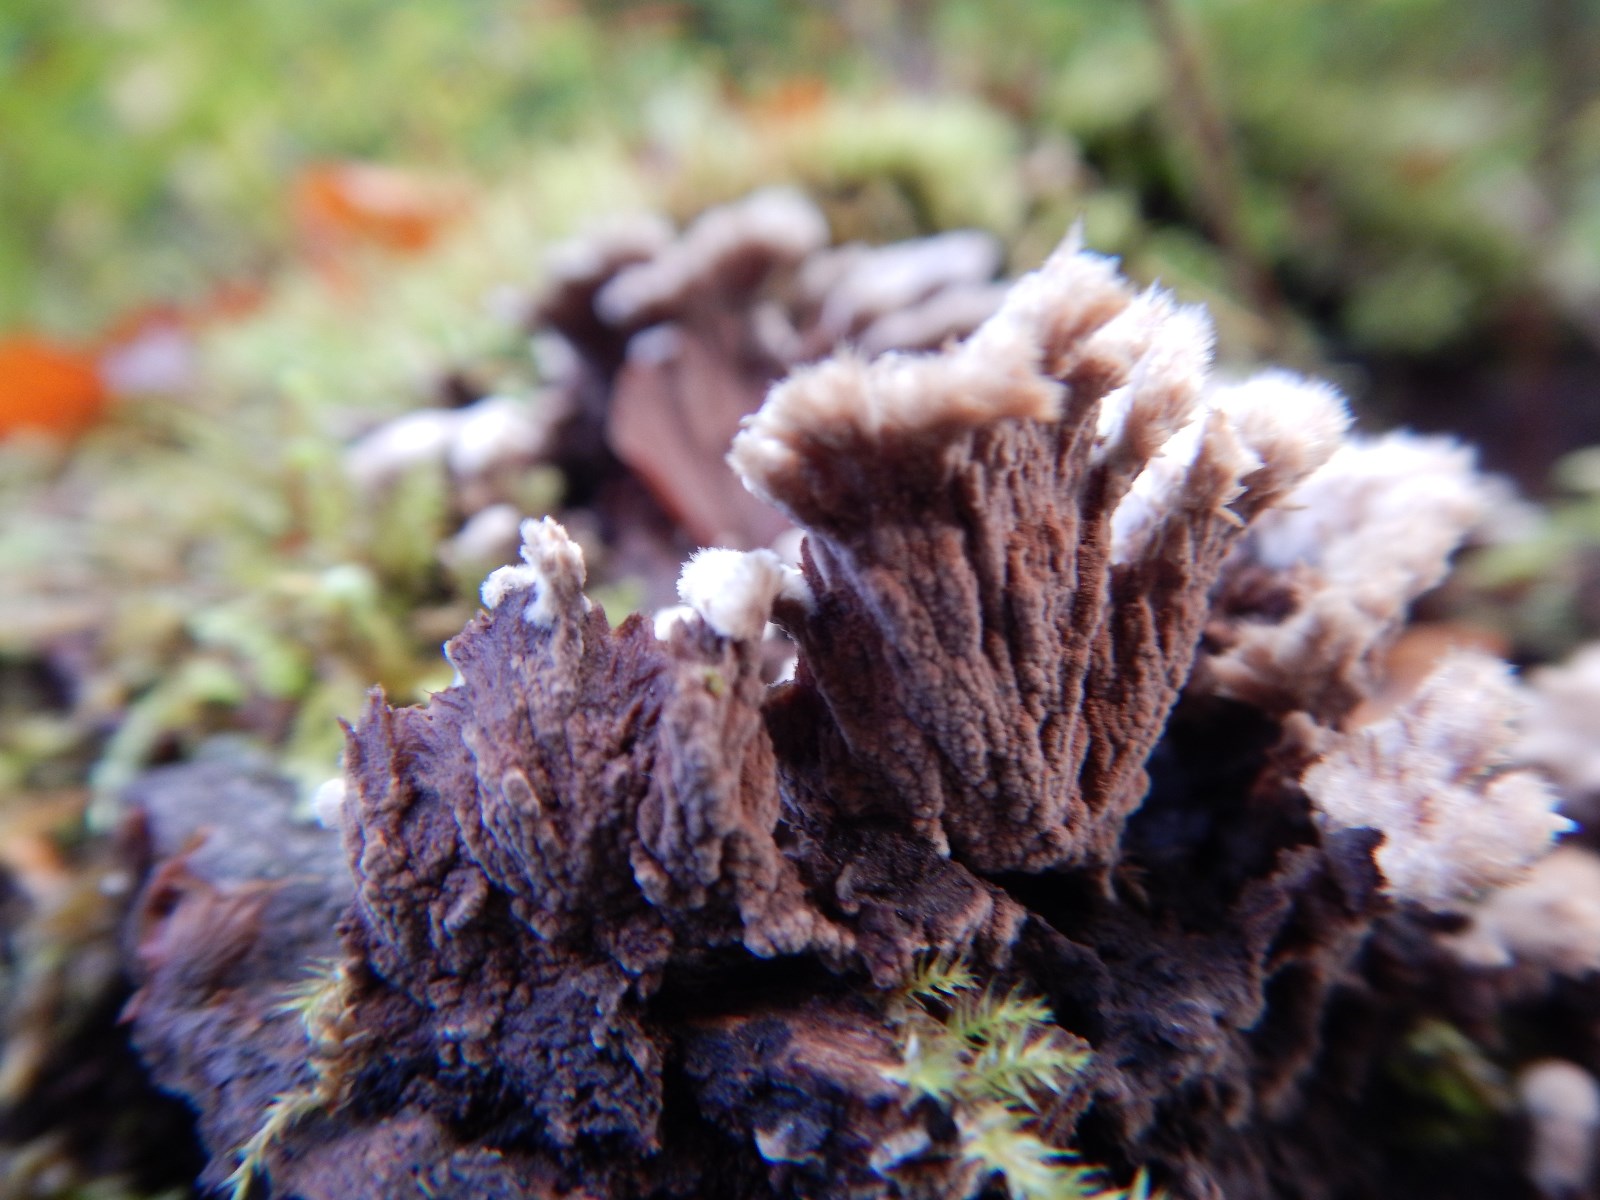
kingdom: Fungi
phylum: Basidiomycota
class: Agaricomycetes
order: Thelephorales
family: Thelephoraceae
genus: Thelephora
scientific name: Thelephora terrestris
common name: fliget frynsesvamp
